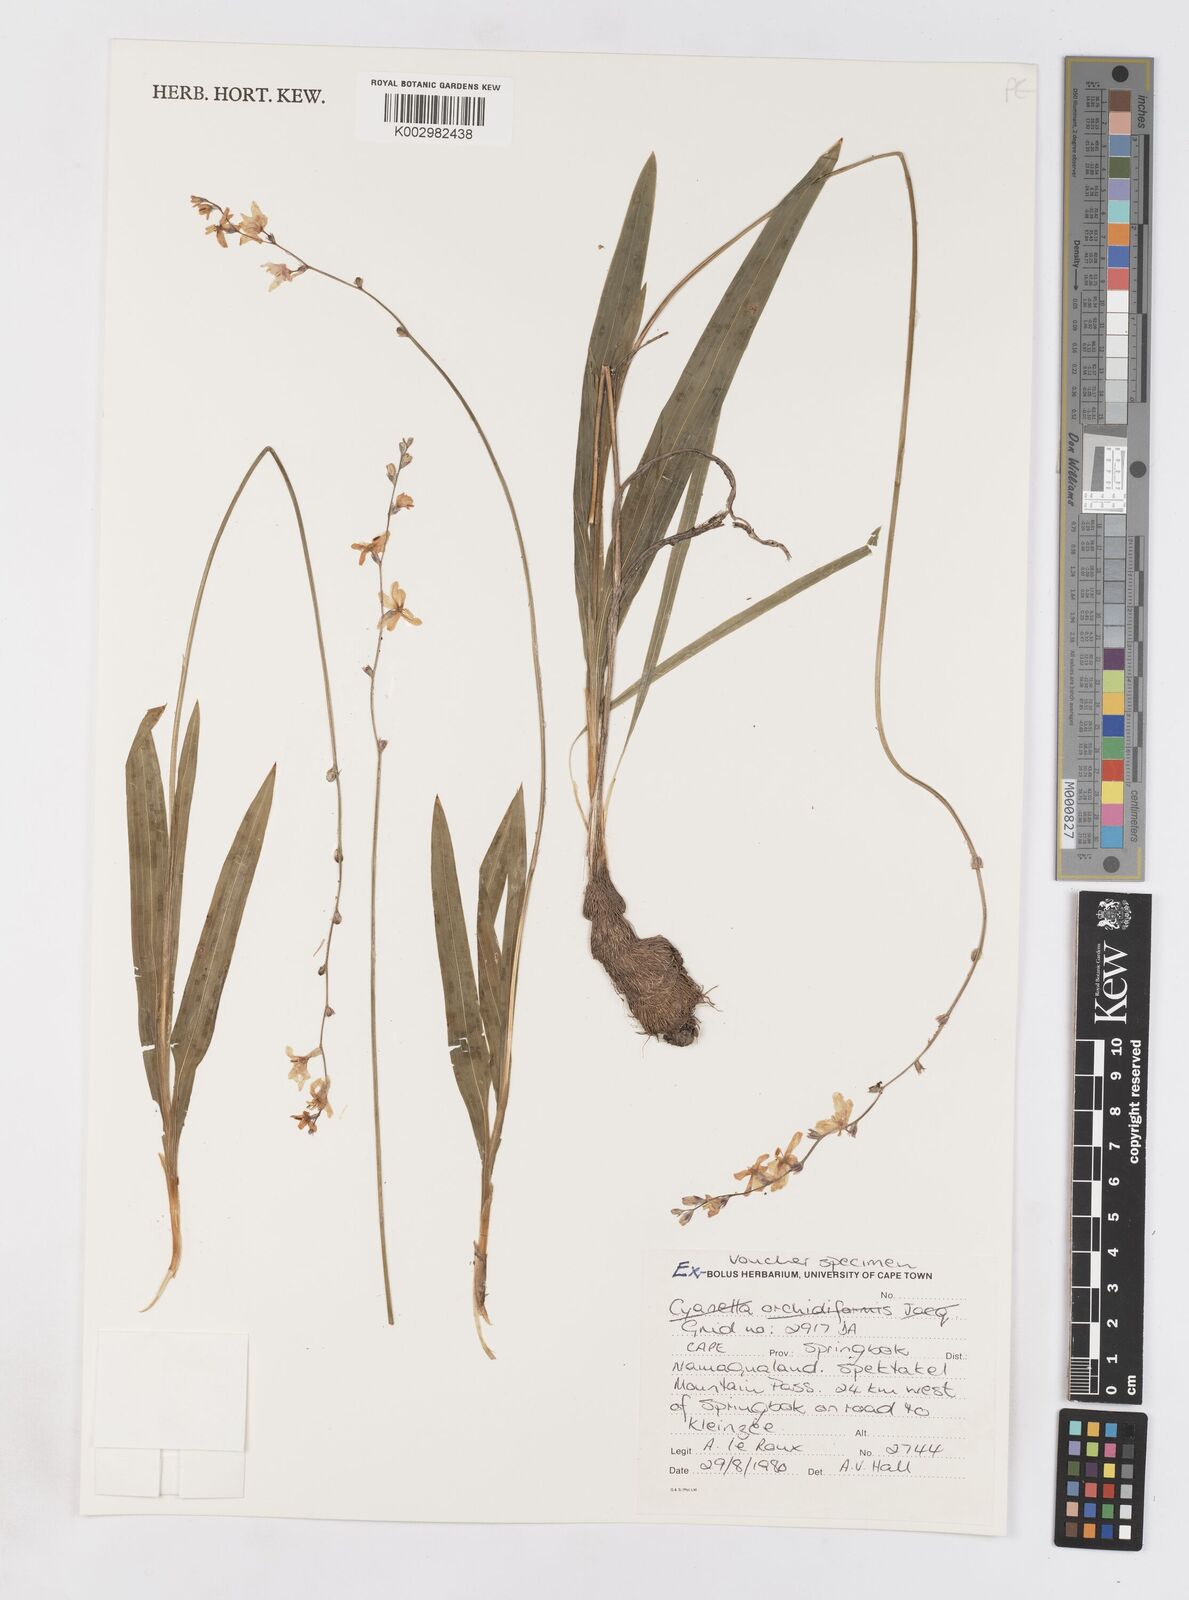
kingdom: Plantae
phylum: Tracheophyta
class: Liliopsida
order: Asparagales
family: Iridaceae
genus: Tritonia
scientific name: Tritonia
